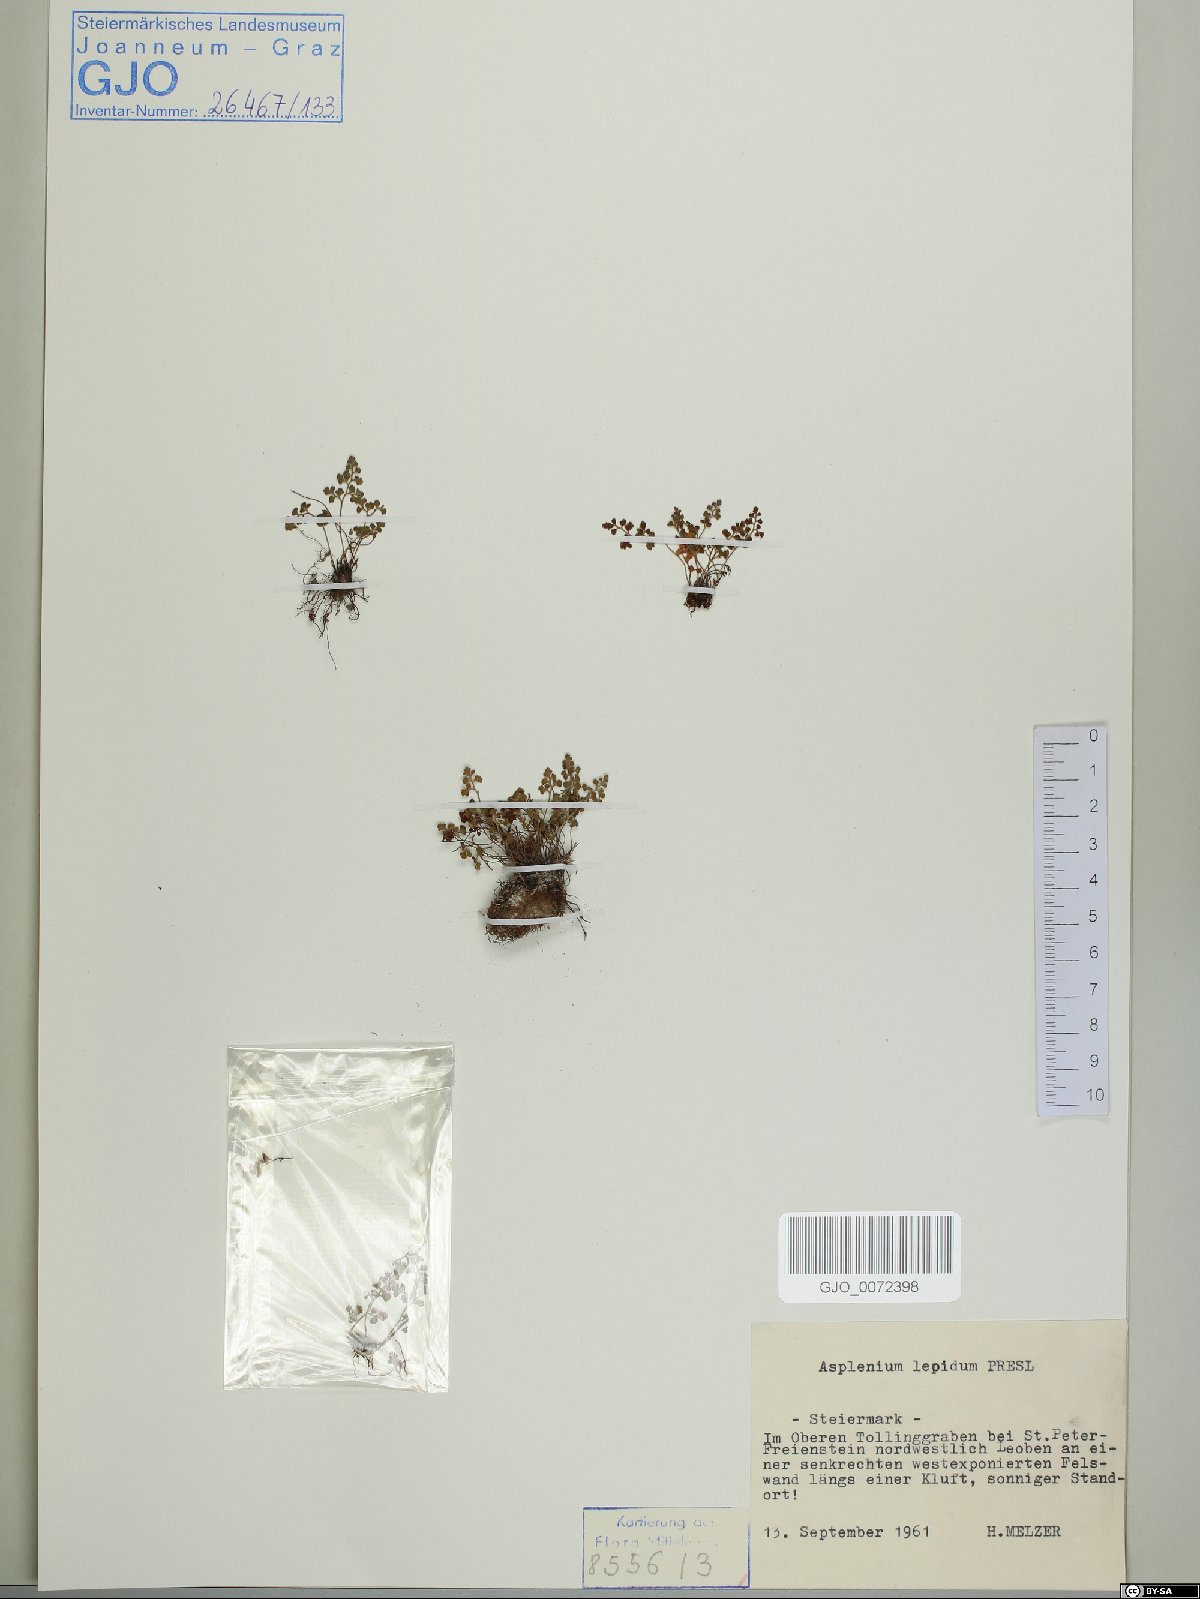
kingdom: Plantae
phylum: Tracheophyta
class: Polypodiopsida
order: Polypodiales
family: Aspleniaceae
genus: Asplenium
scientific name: Asplenium lepidum
